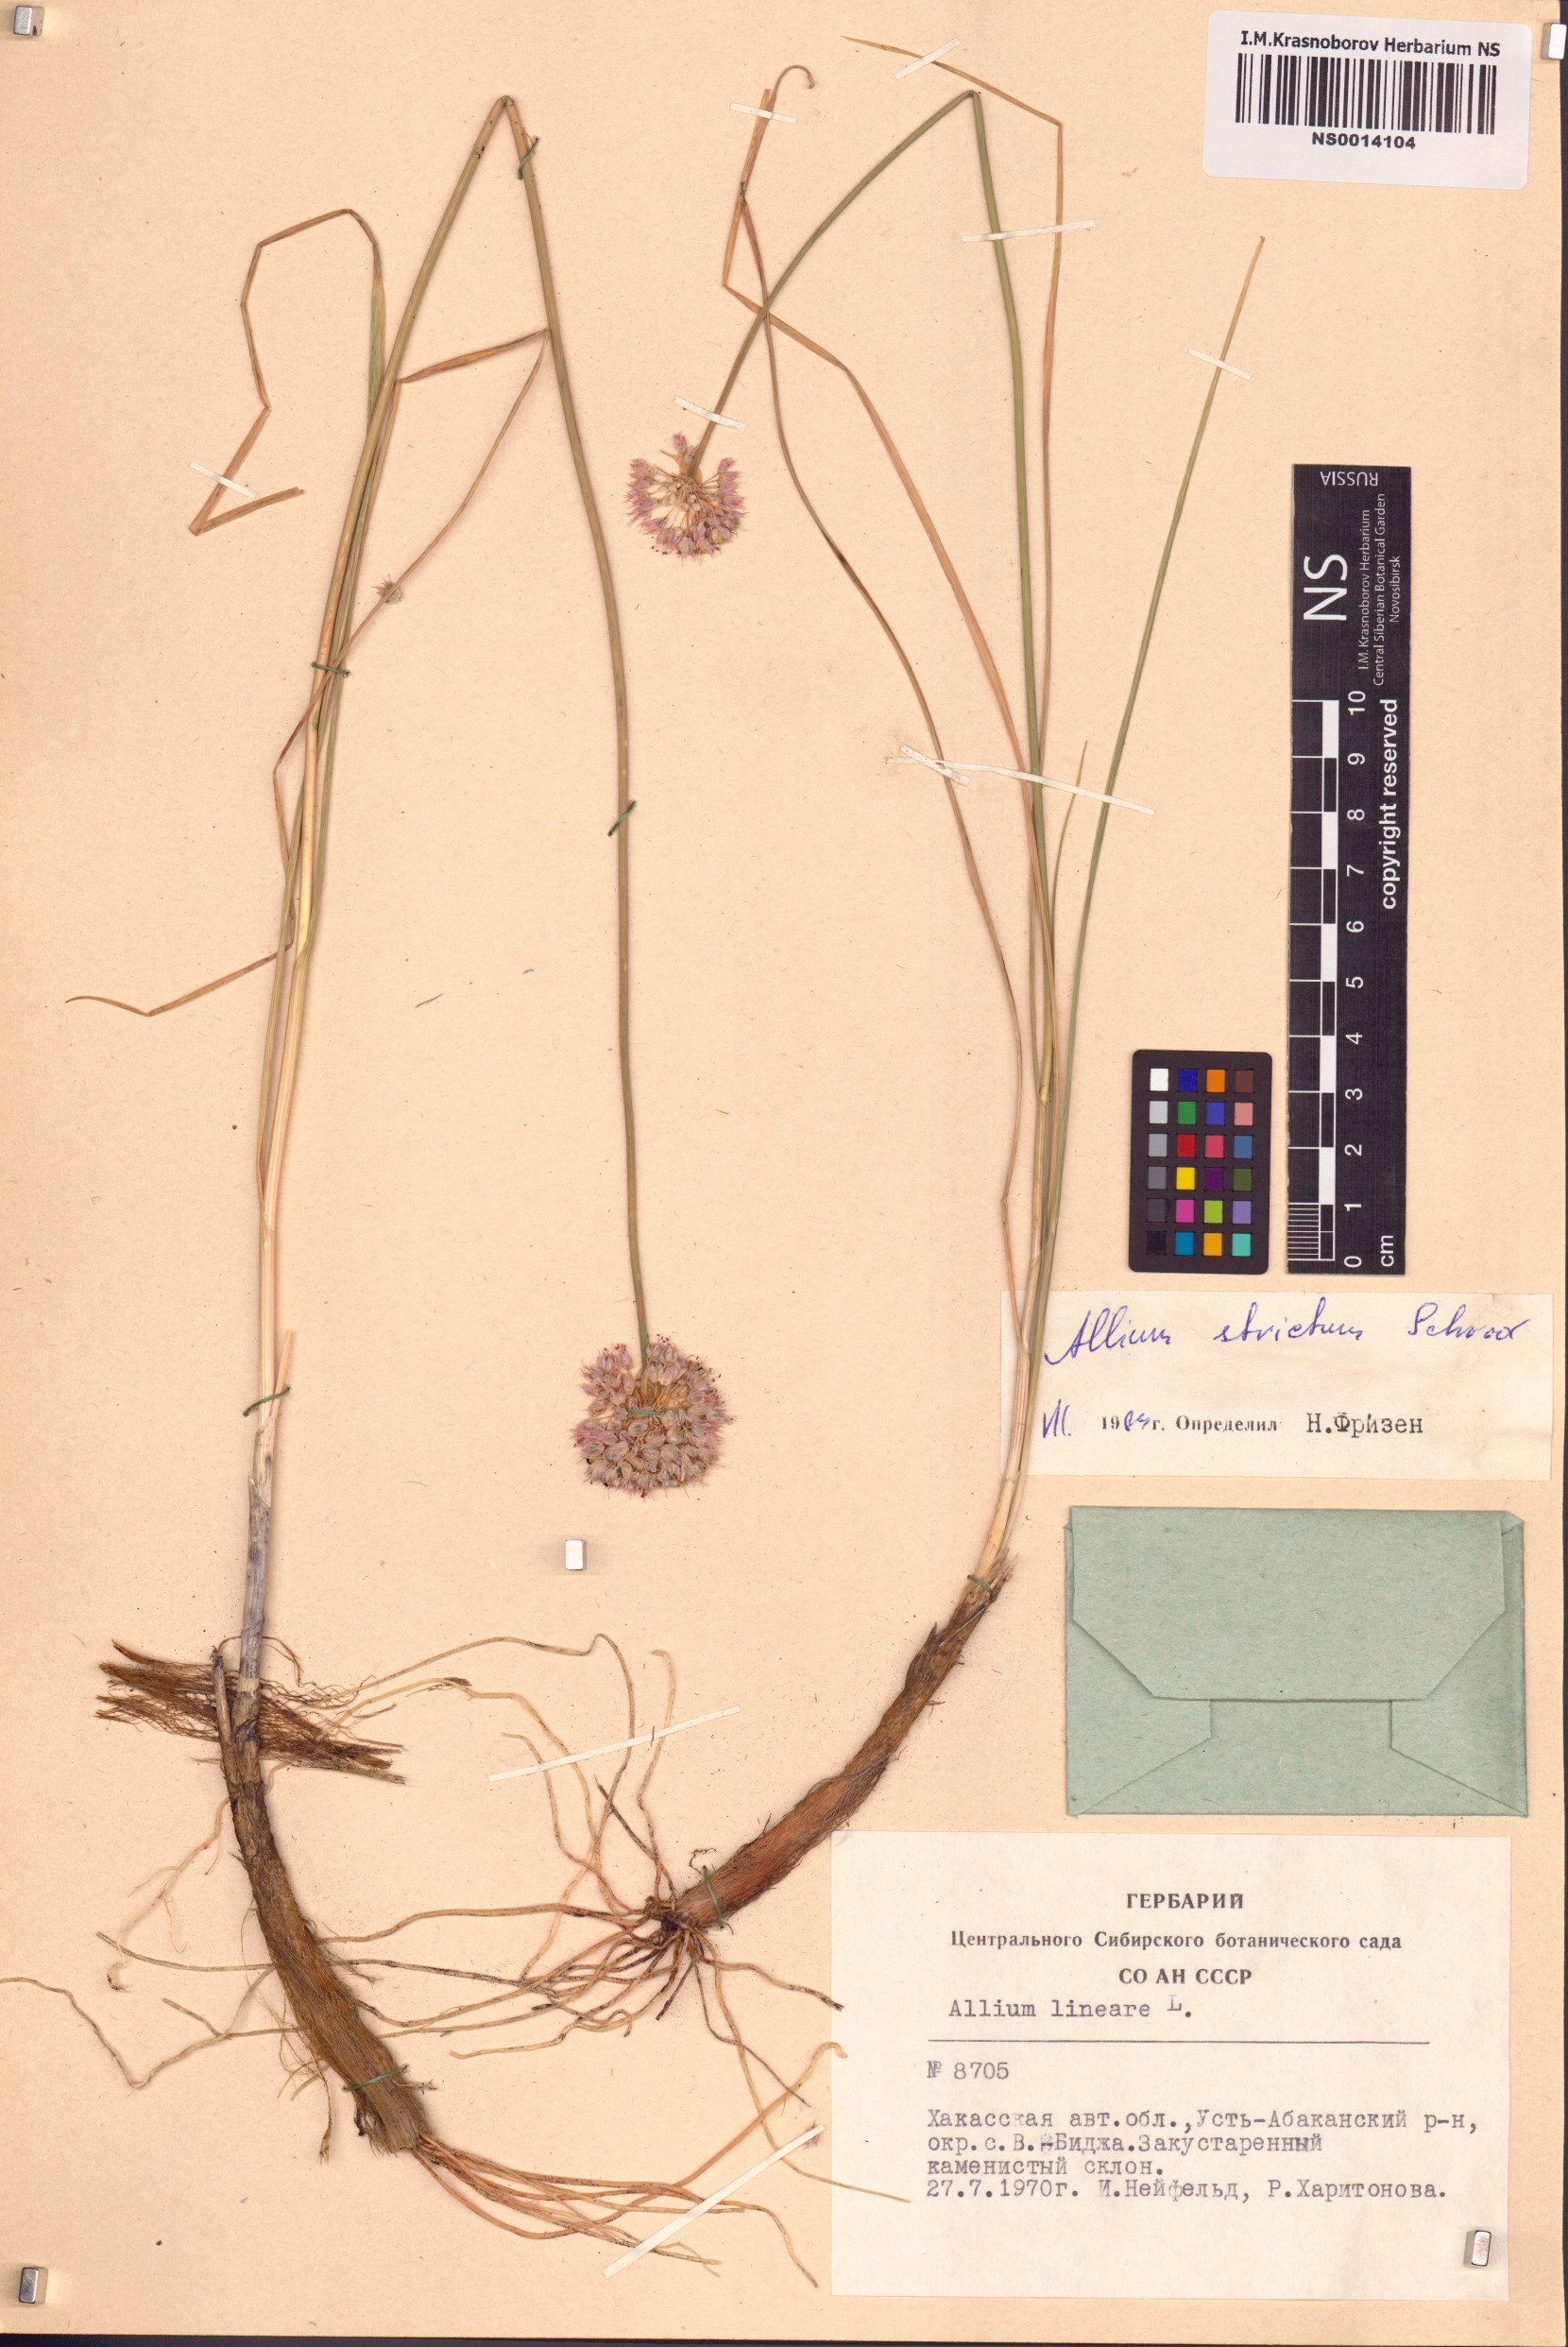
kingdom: Plantae
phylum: Tracheophyta
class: Liliopsida
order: Asparagales
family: Amaryllidaceae
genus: Allium
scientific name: Allium strictum
